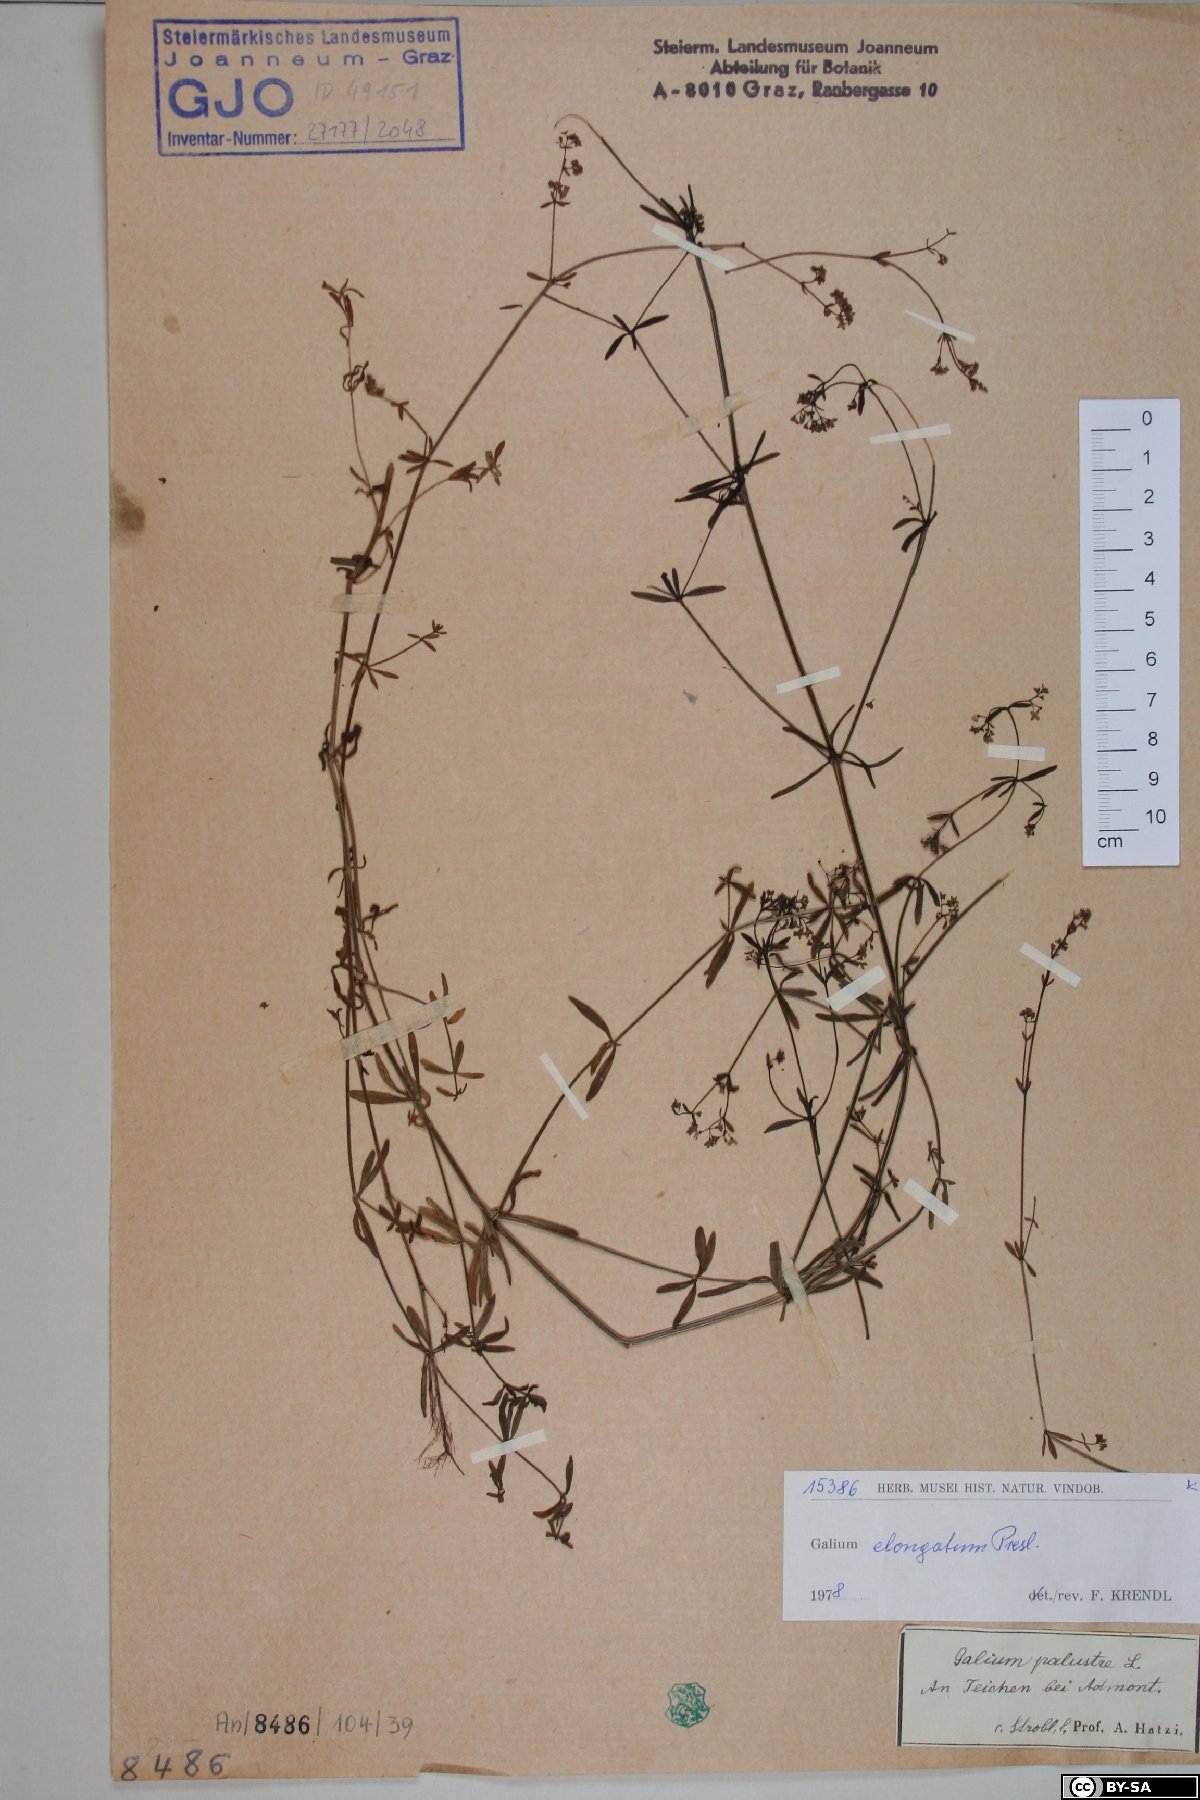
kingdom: Plantae
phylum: Tracheophyta
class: Magnoliopsida
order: Gentianales
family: Rubiaceae
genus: Galium
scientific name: Galium elongatum
